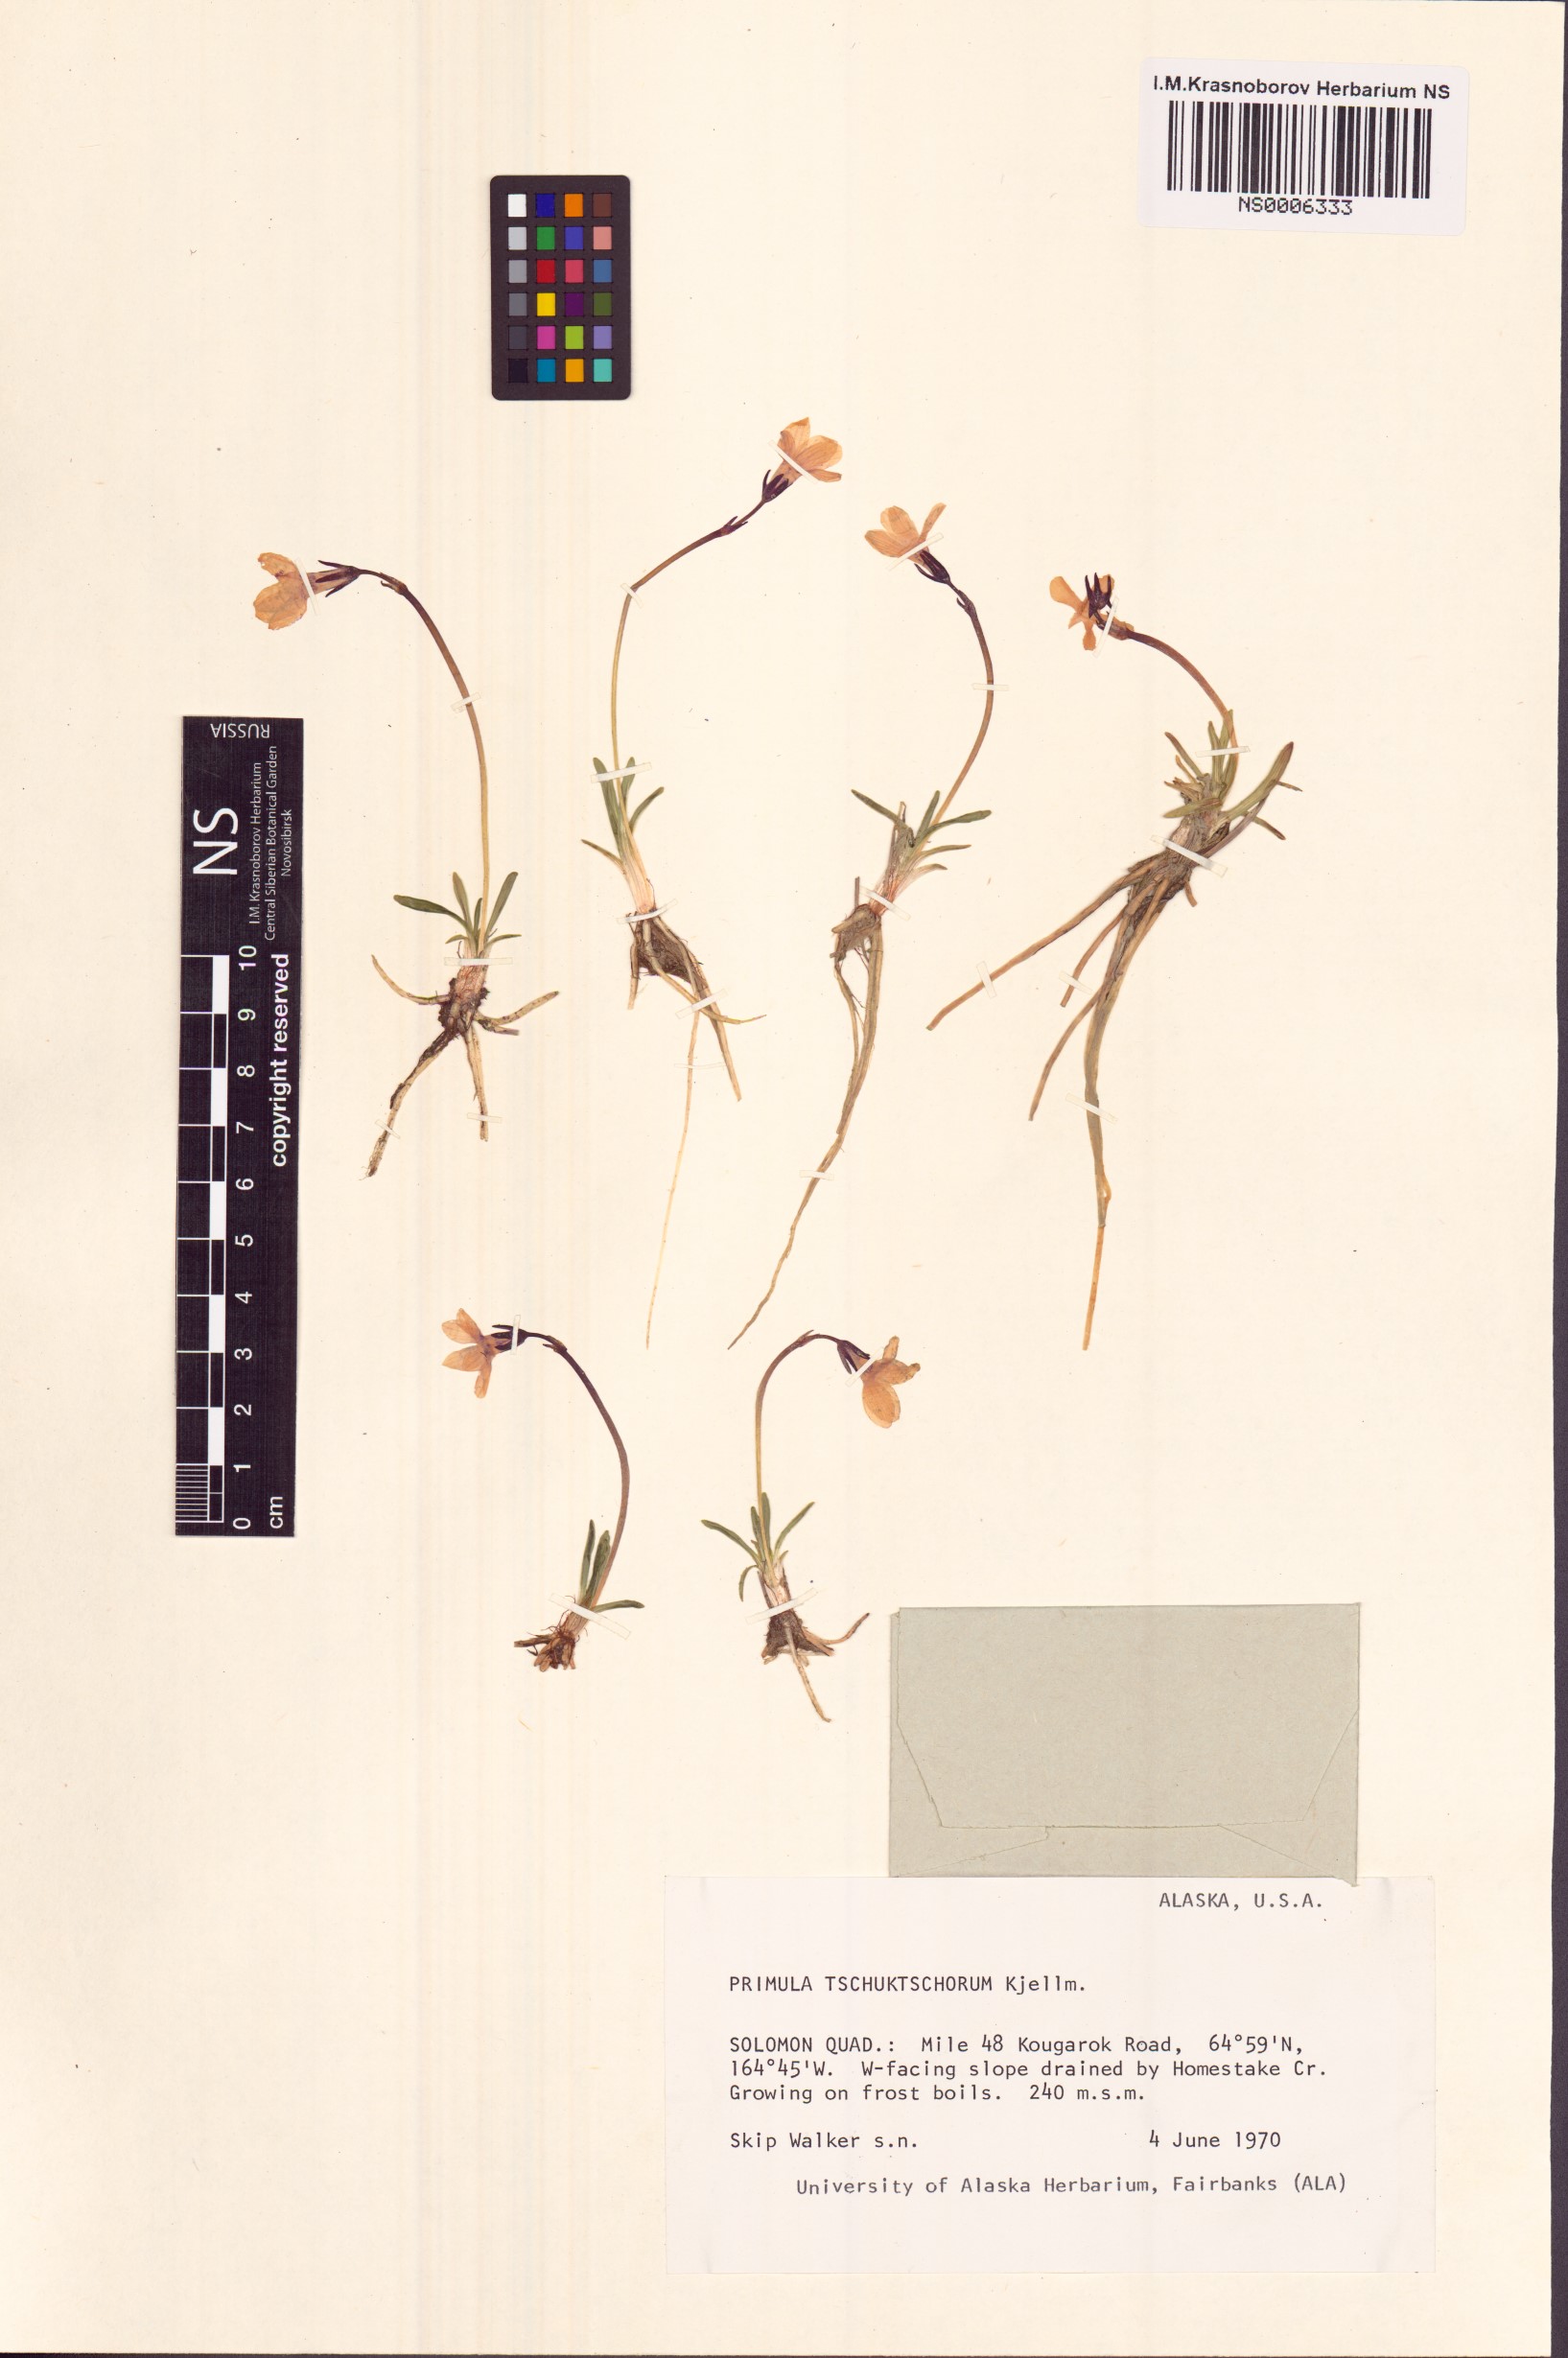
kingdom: Plantae
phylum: Tracheophyta
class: Magnoliopsida
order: Ericales
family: Primulaceae
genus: Primula
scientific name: Primula tschuktschorum
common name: Chukchi primrose
